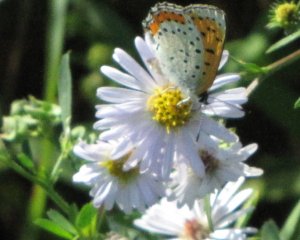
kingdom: Animalia
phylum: Arthropoda
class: Insecta
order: Lepidoptera
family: Sesiidae
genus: Sesia
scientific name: Sesia Lycaena hyllus
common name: Bronze Copper
